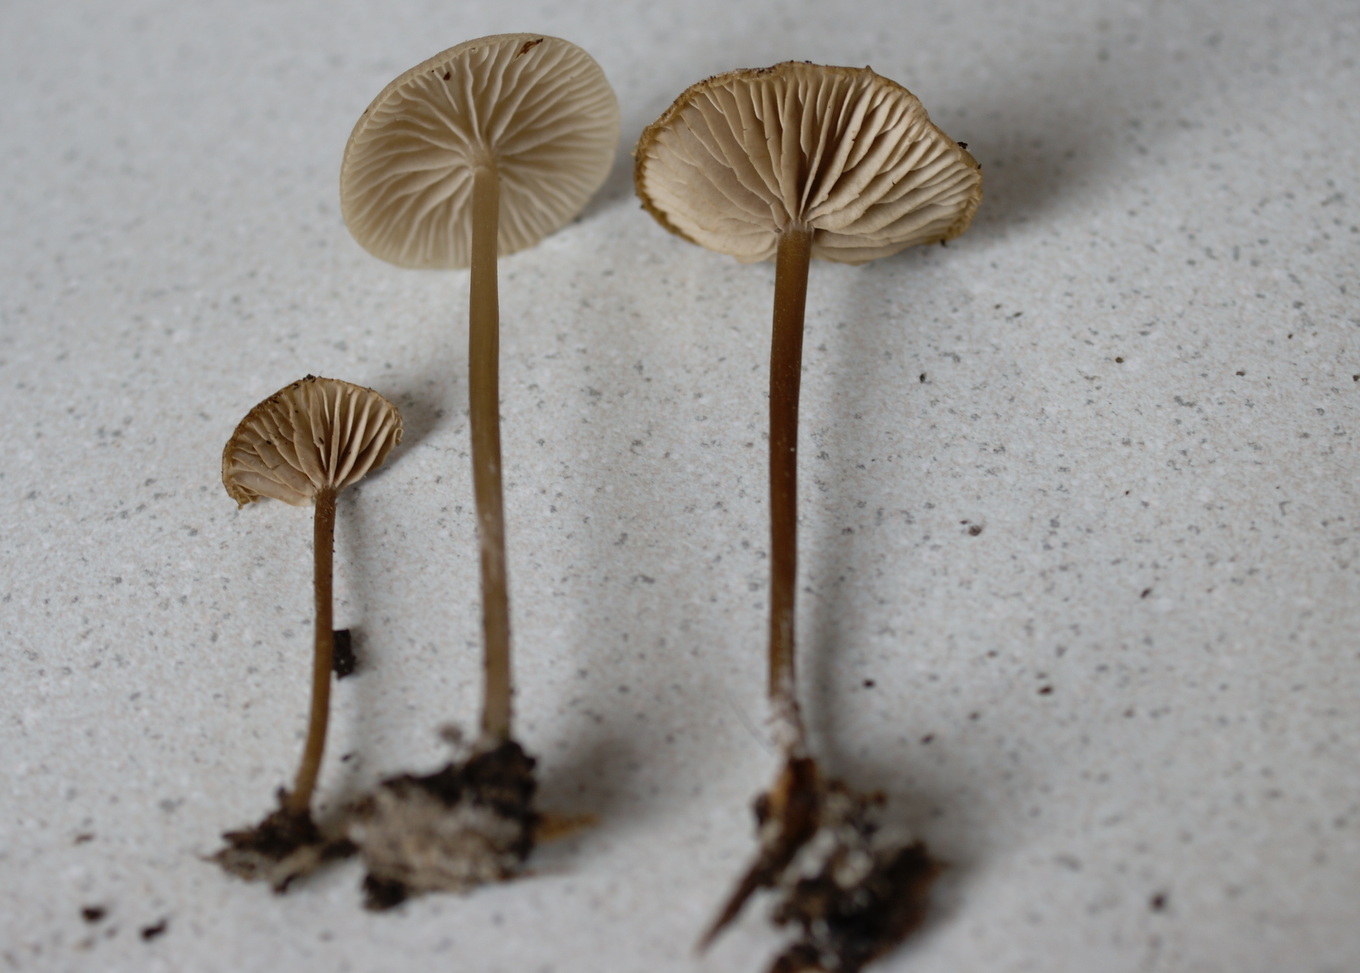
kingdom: Fungi
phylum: Basidiomycota
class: Agaricomycetes
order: Agaricales
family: Entolomataceae
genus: Entoloma
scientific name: Entoloma minutum
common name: liden rødblad
